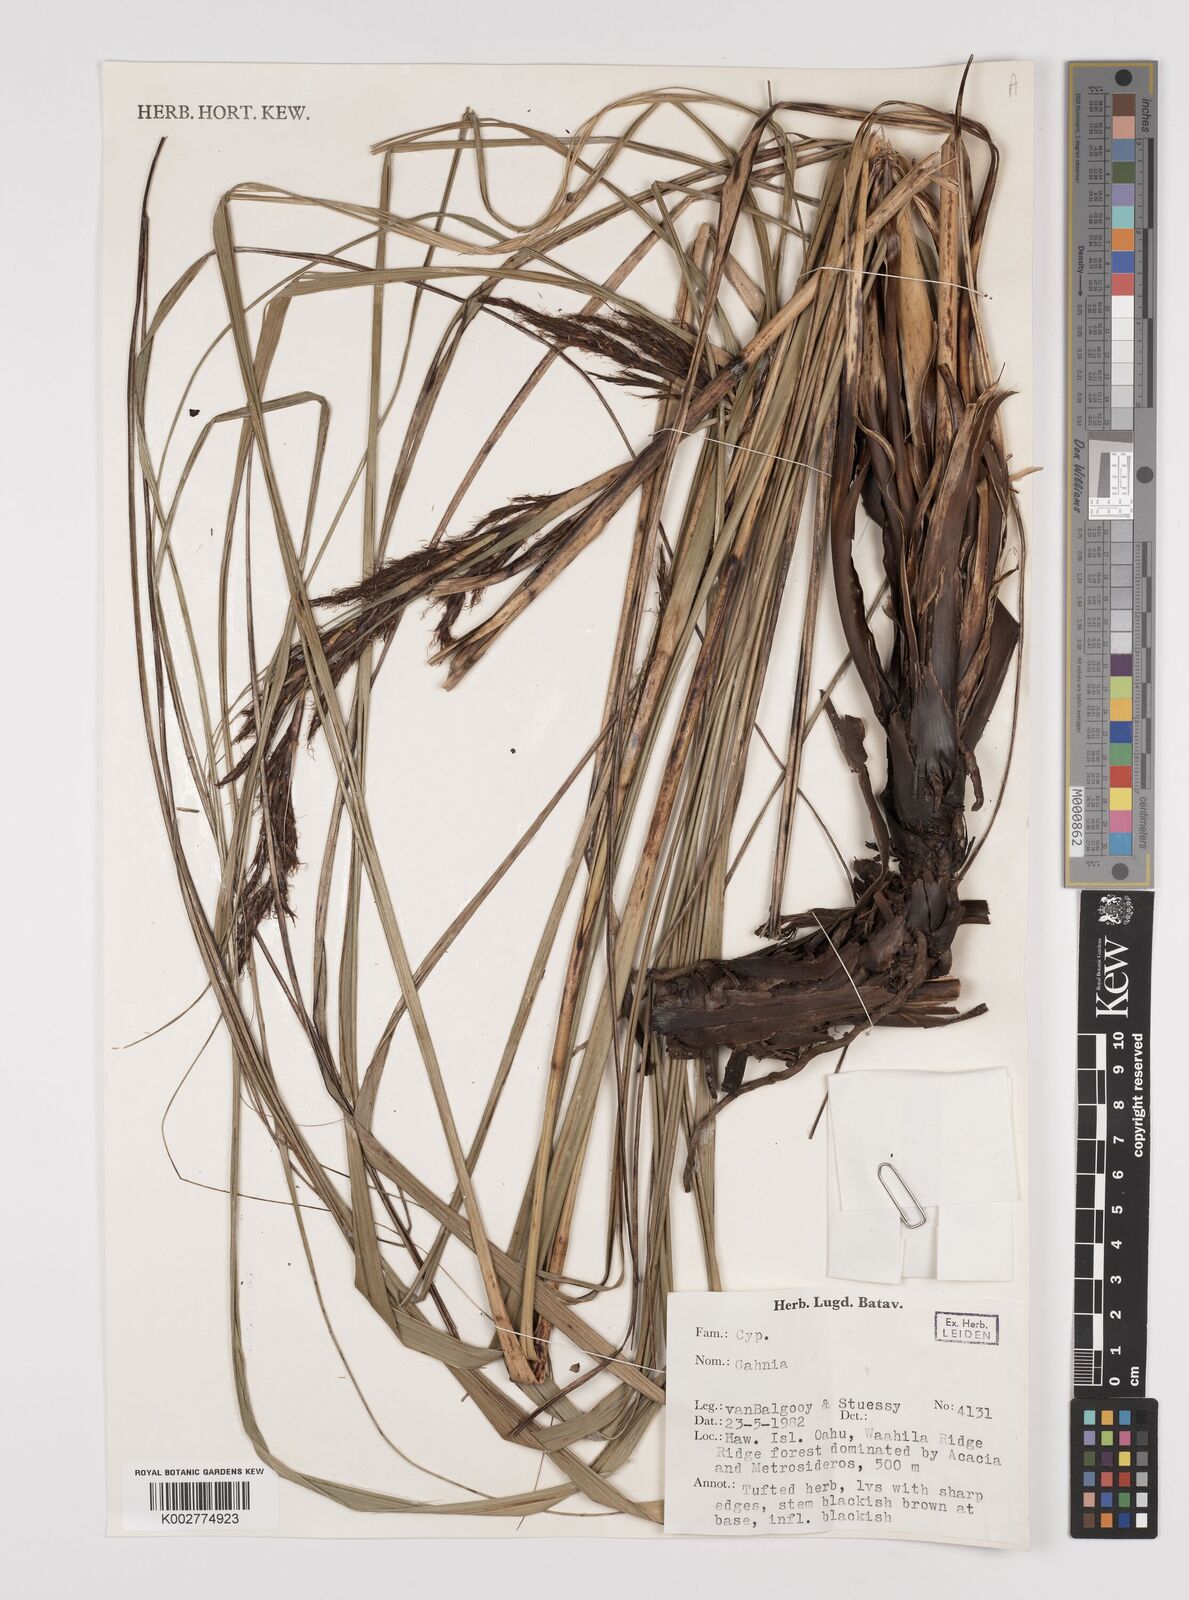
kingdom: Plantae
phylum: Tracheophyta
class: Liliopsida
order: Poales
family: Cyperaceae
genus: Gahnia
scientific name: Gahnia
